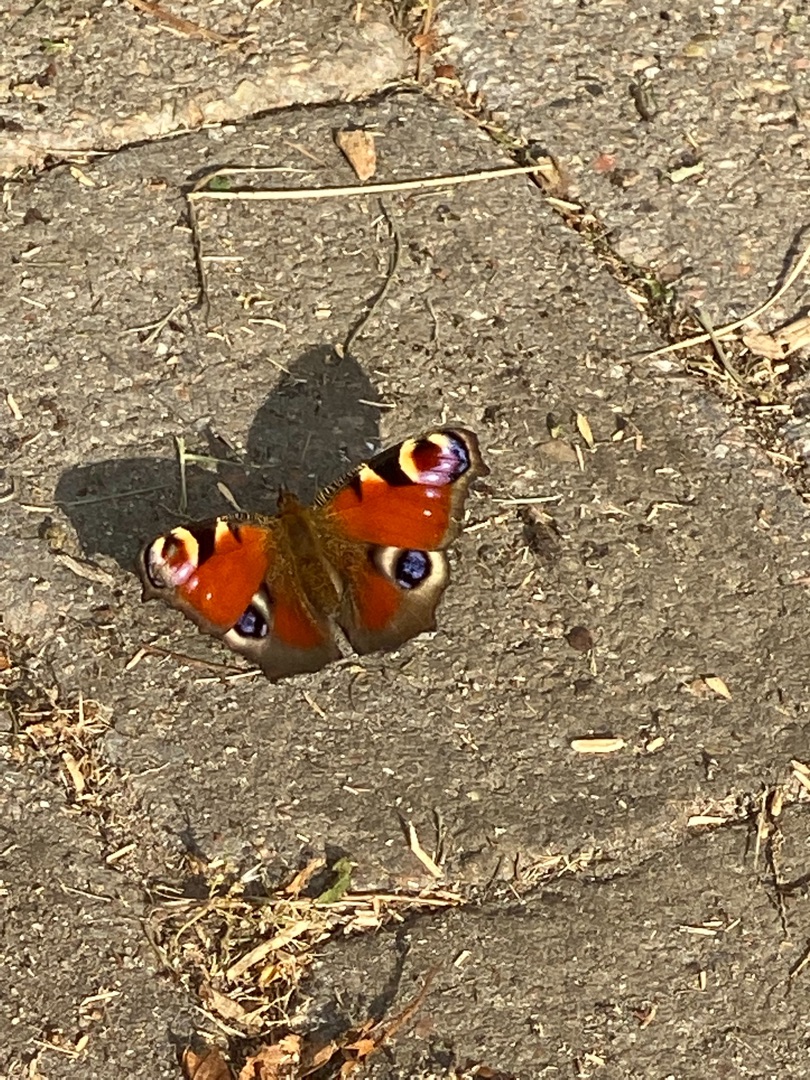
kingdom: Animalia
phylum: Arthropoda
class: Insecta
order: Lepidoptera
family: Nymphalidae
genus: Aglais
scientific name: Aglais io
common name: Dagpåfugleøje
